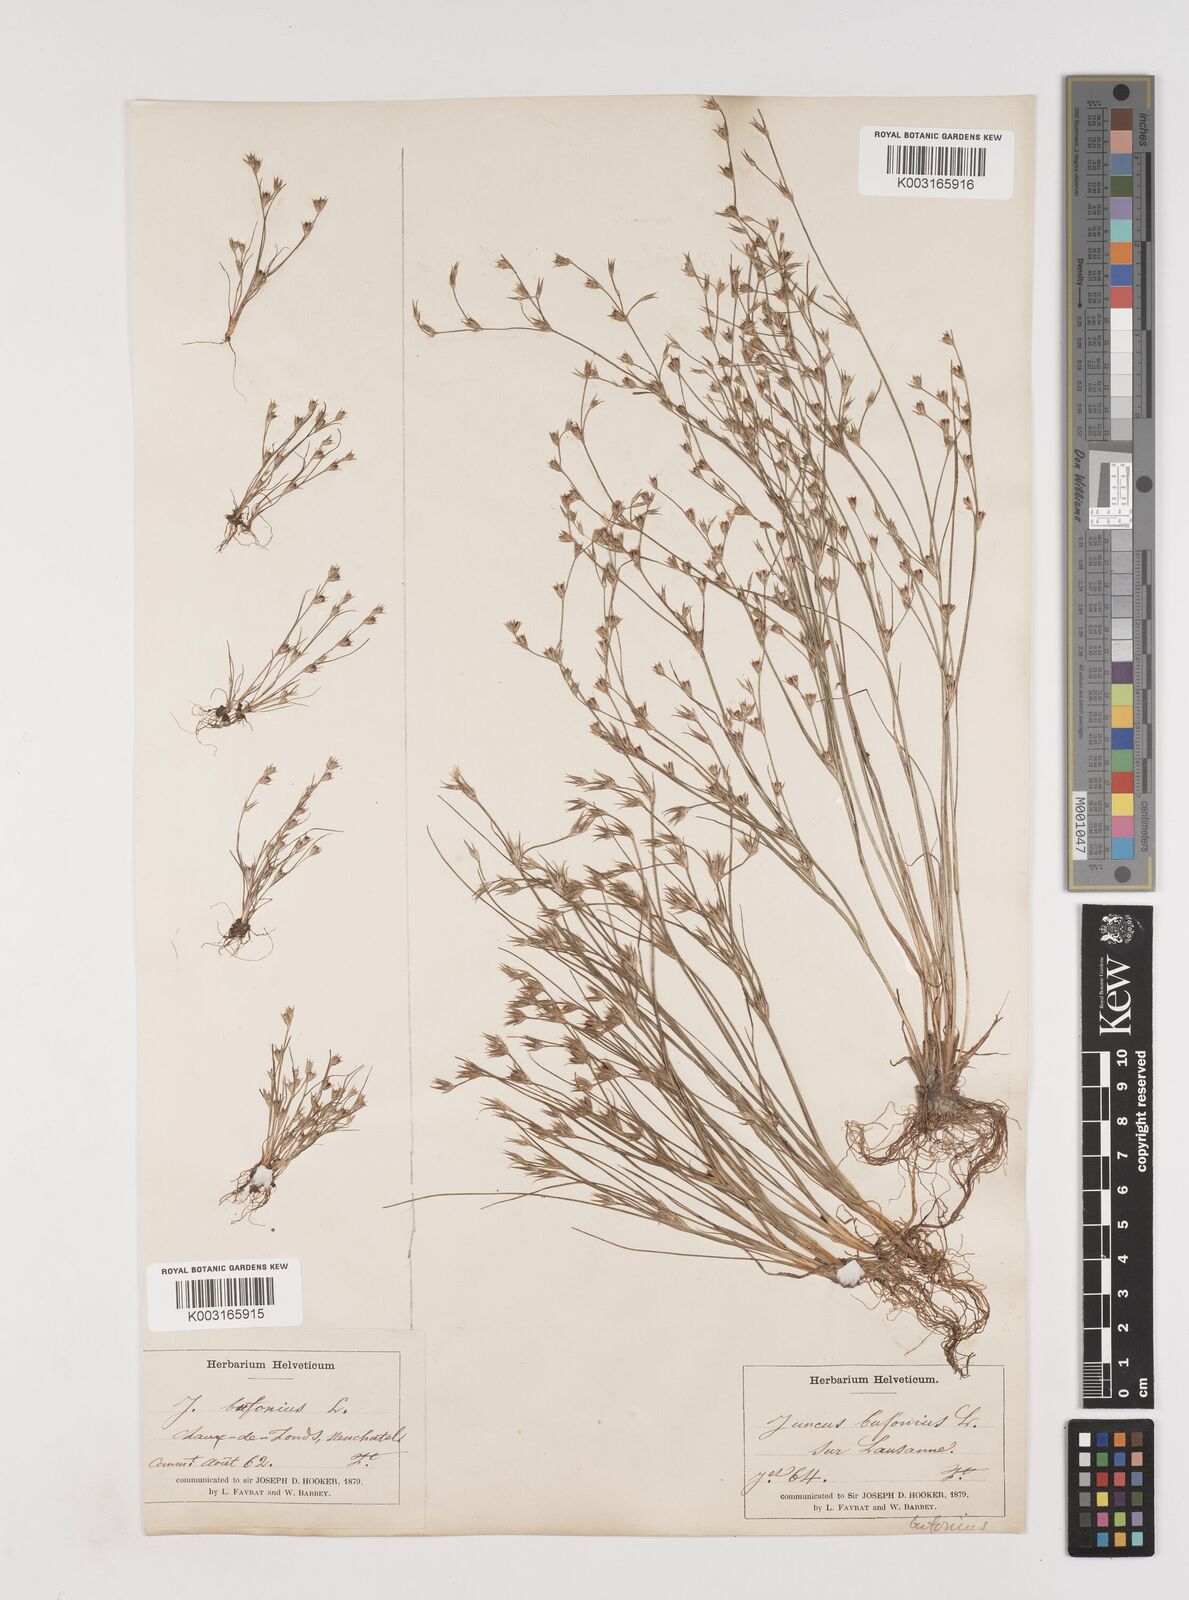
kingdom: Plantae
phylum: Tracheophyta
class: Liliopsida
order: Poales
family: Juncaceae
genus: Juncus
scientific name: Juncus bufonius
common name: Toad rush
